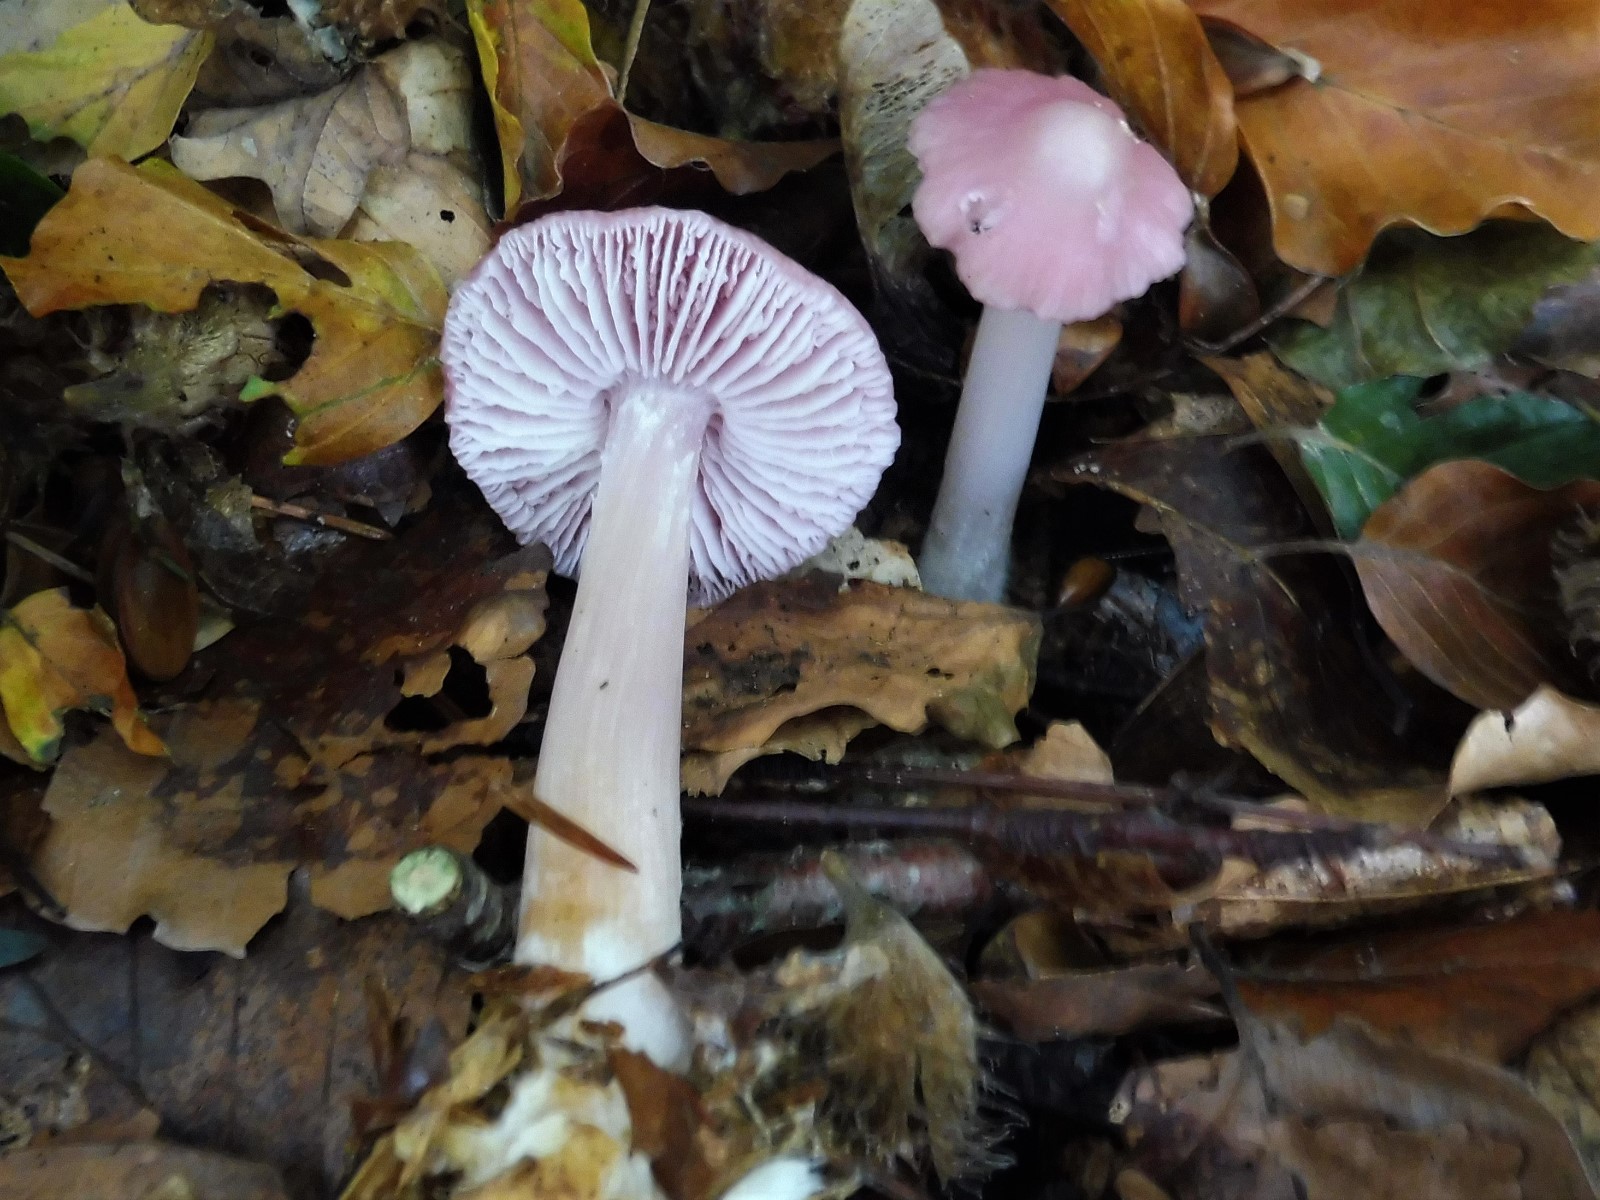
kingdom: Fungi
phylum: Basidiomycota
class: Agaricomycetes
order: Agaricales
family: Mycenaceae
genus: Mycena
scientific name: Mycena rosea
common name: rosa huesvamp
